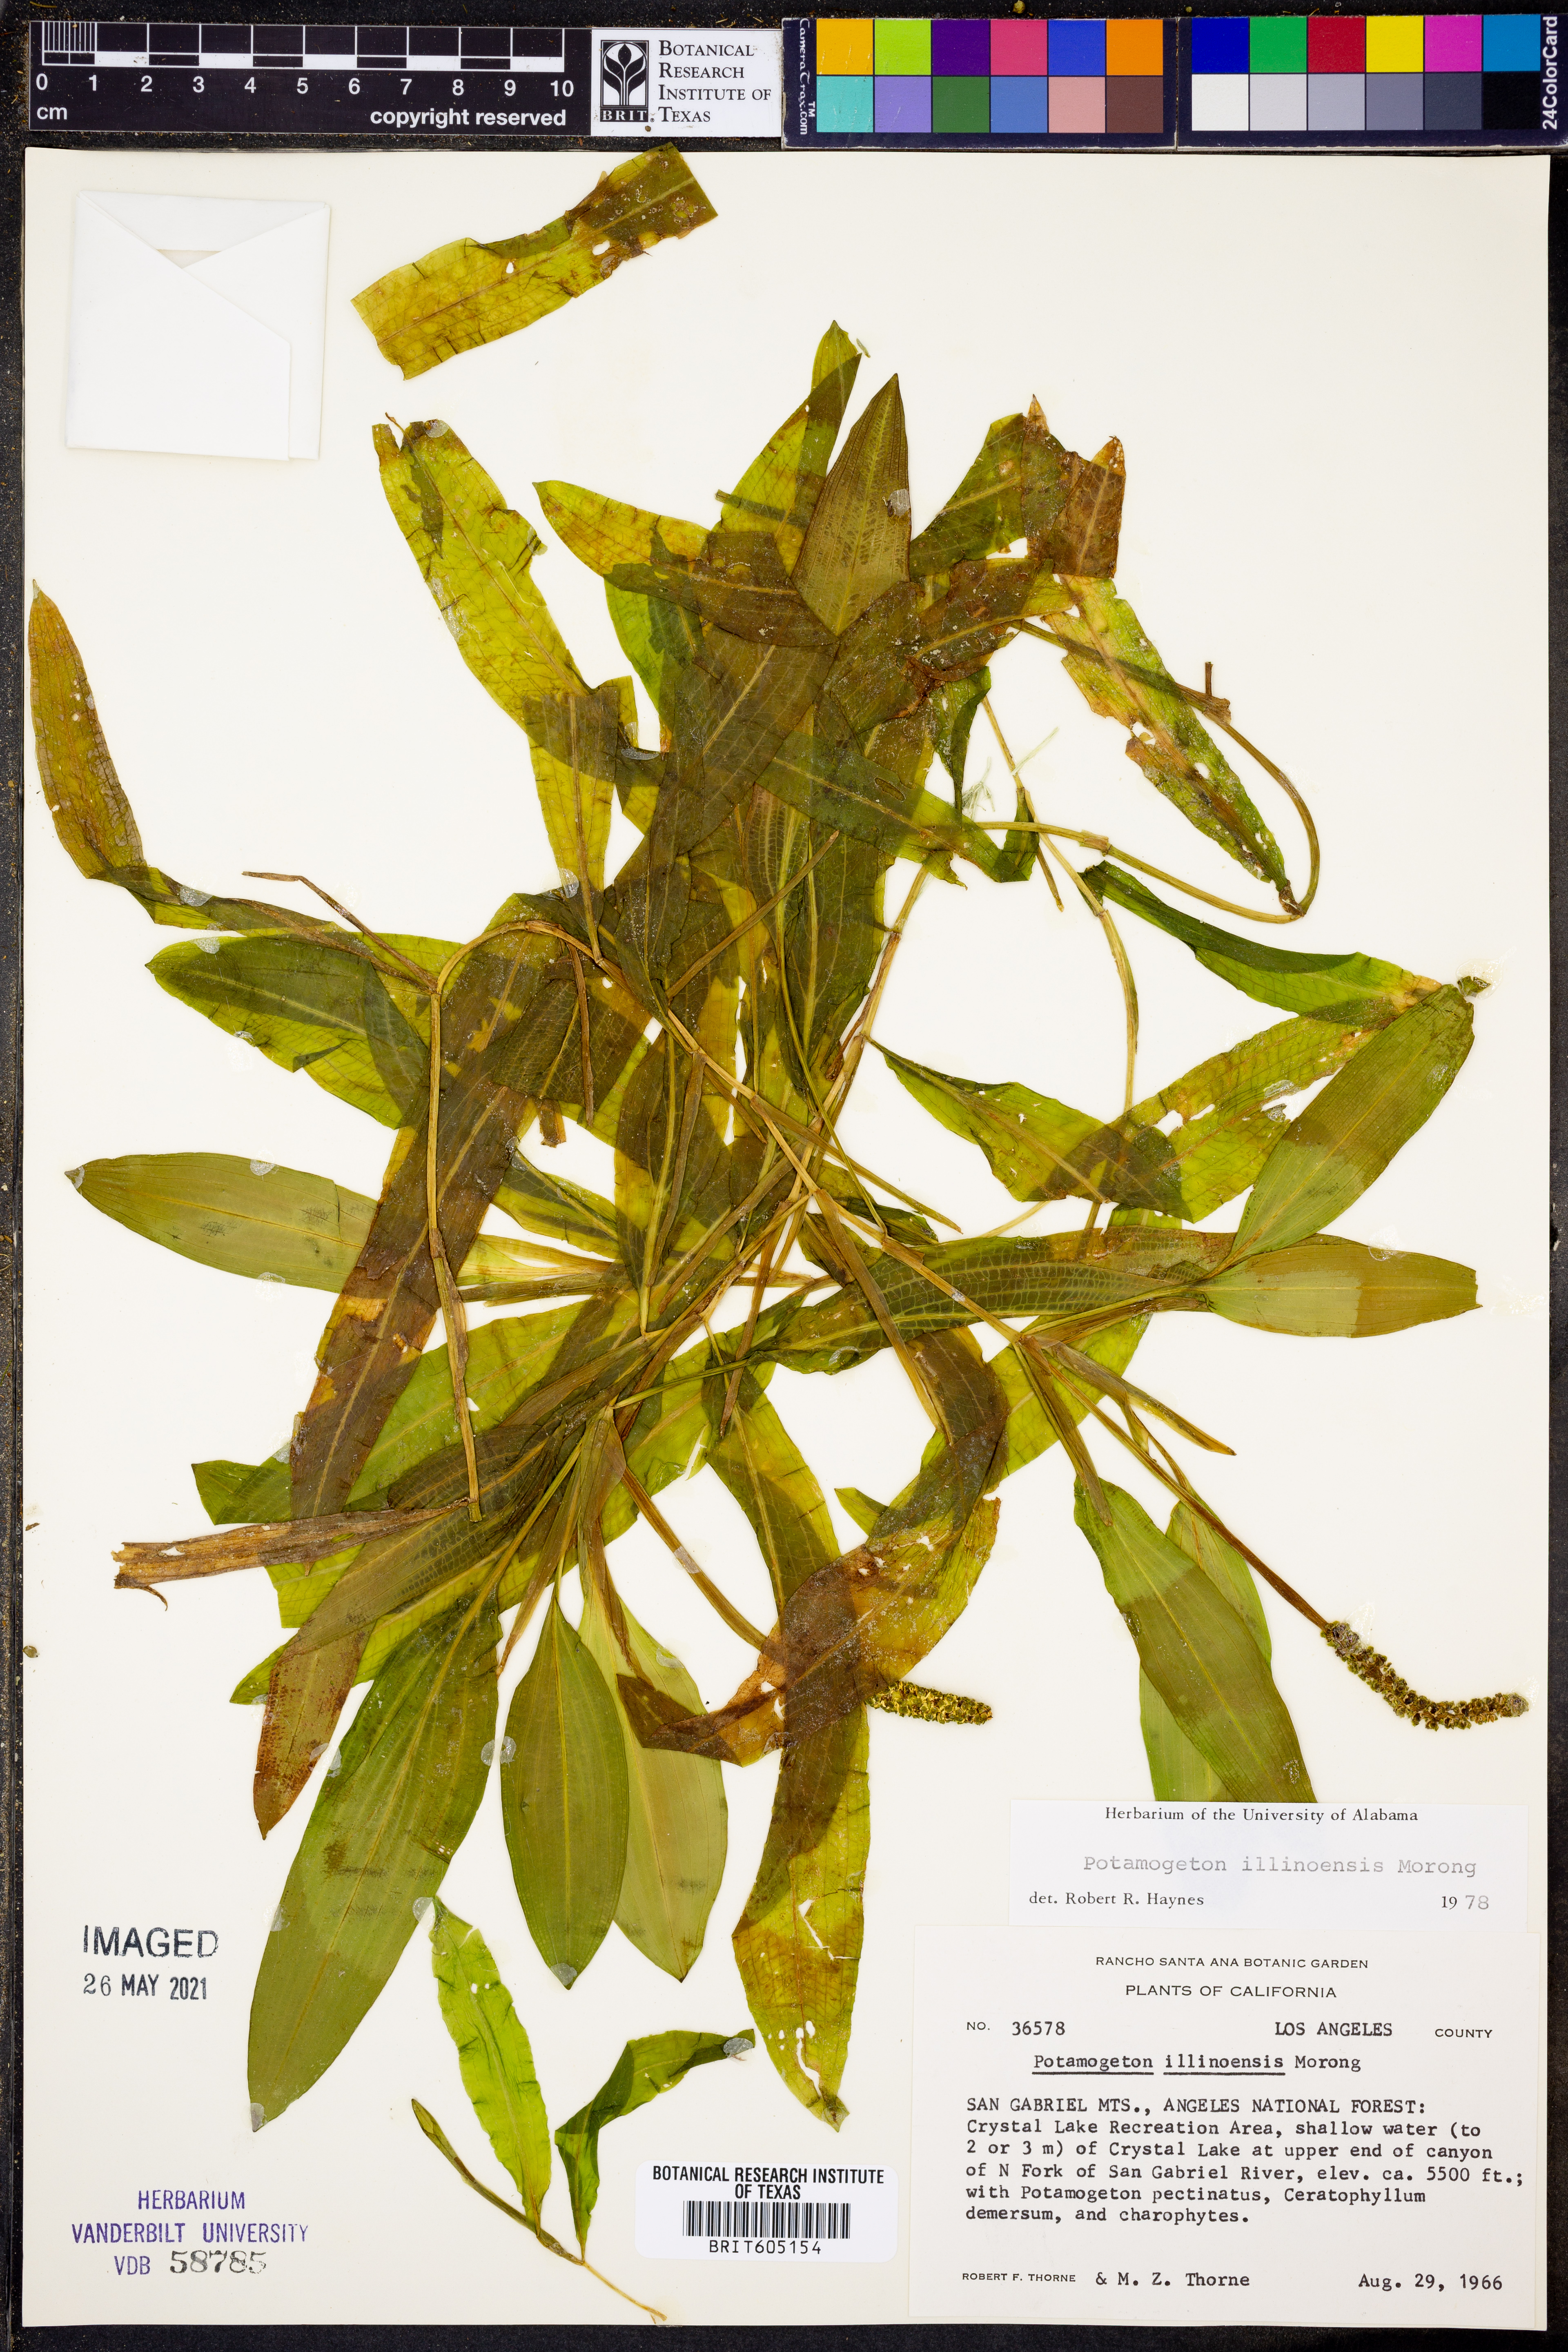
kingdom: Plantae
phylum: Tracheophyta
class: Liliopsida
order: Alismatales
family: Potamogetonaceae
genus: Potamogeton
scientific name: Potamogeton illinoensis
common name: Illinois pondweed
